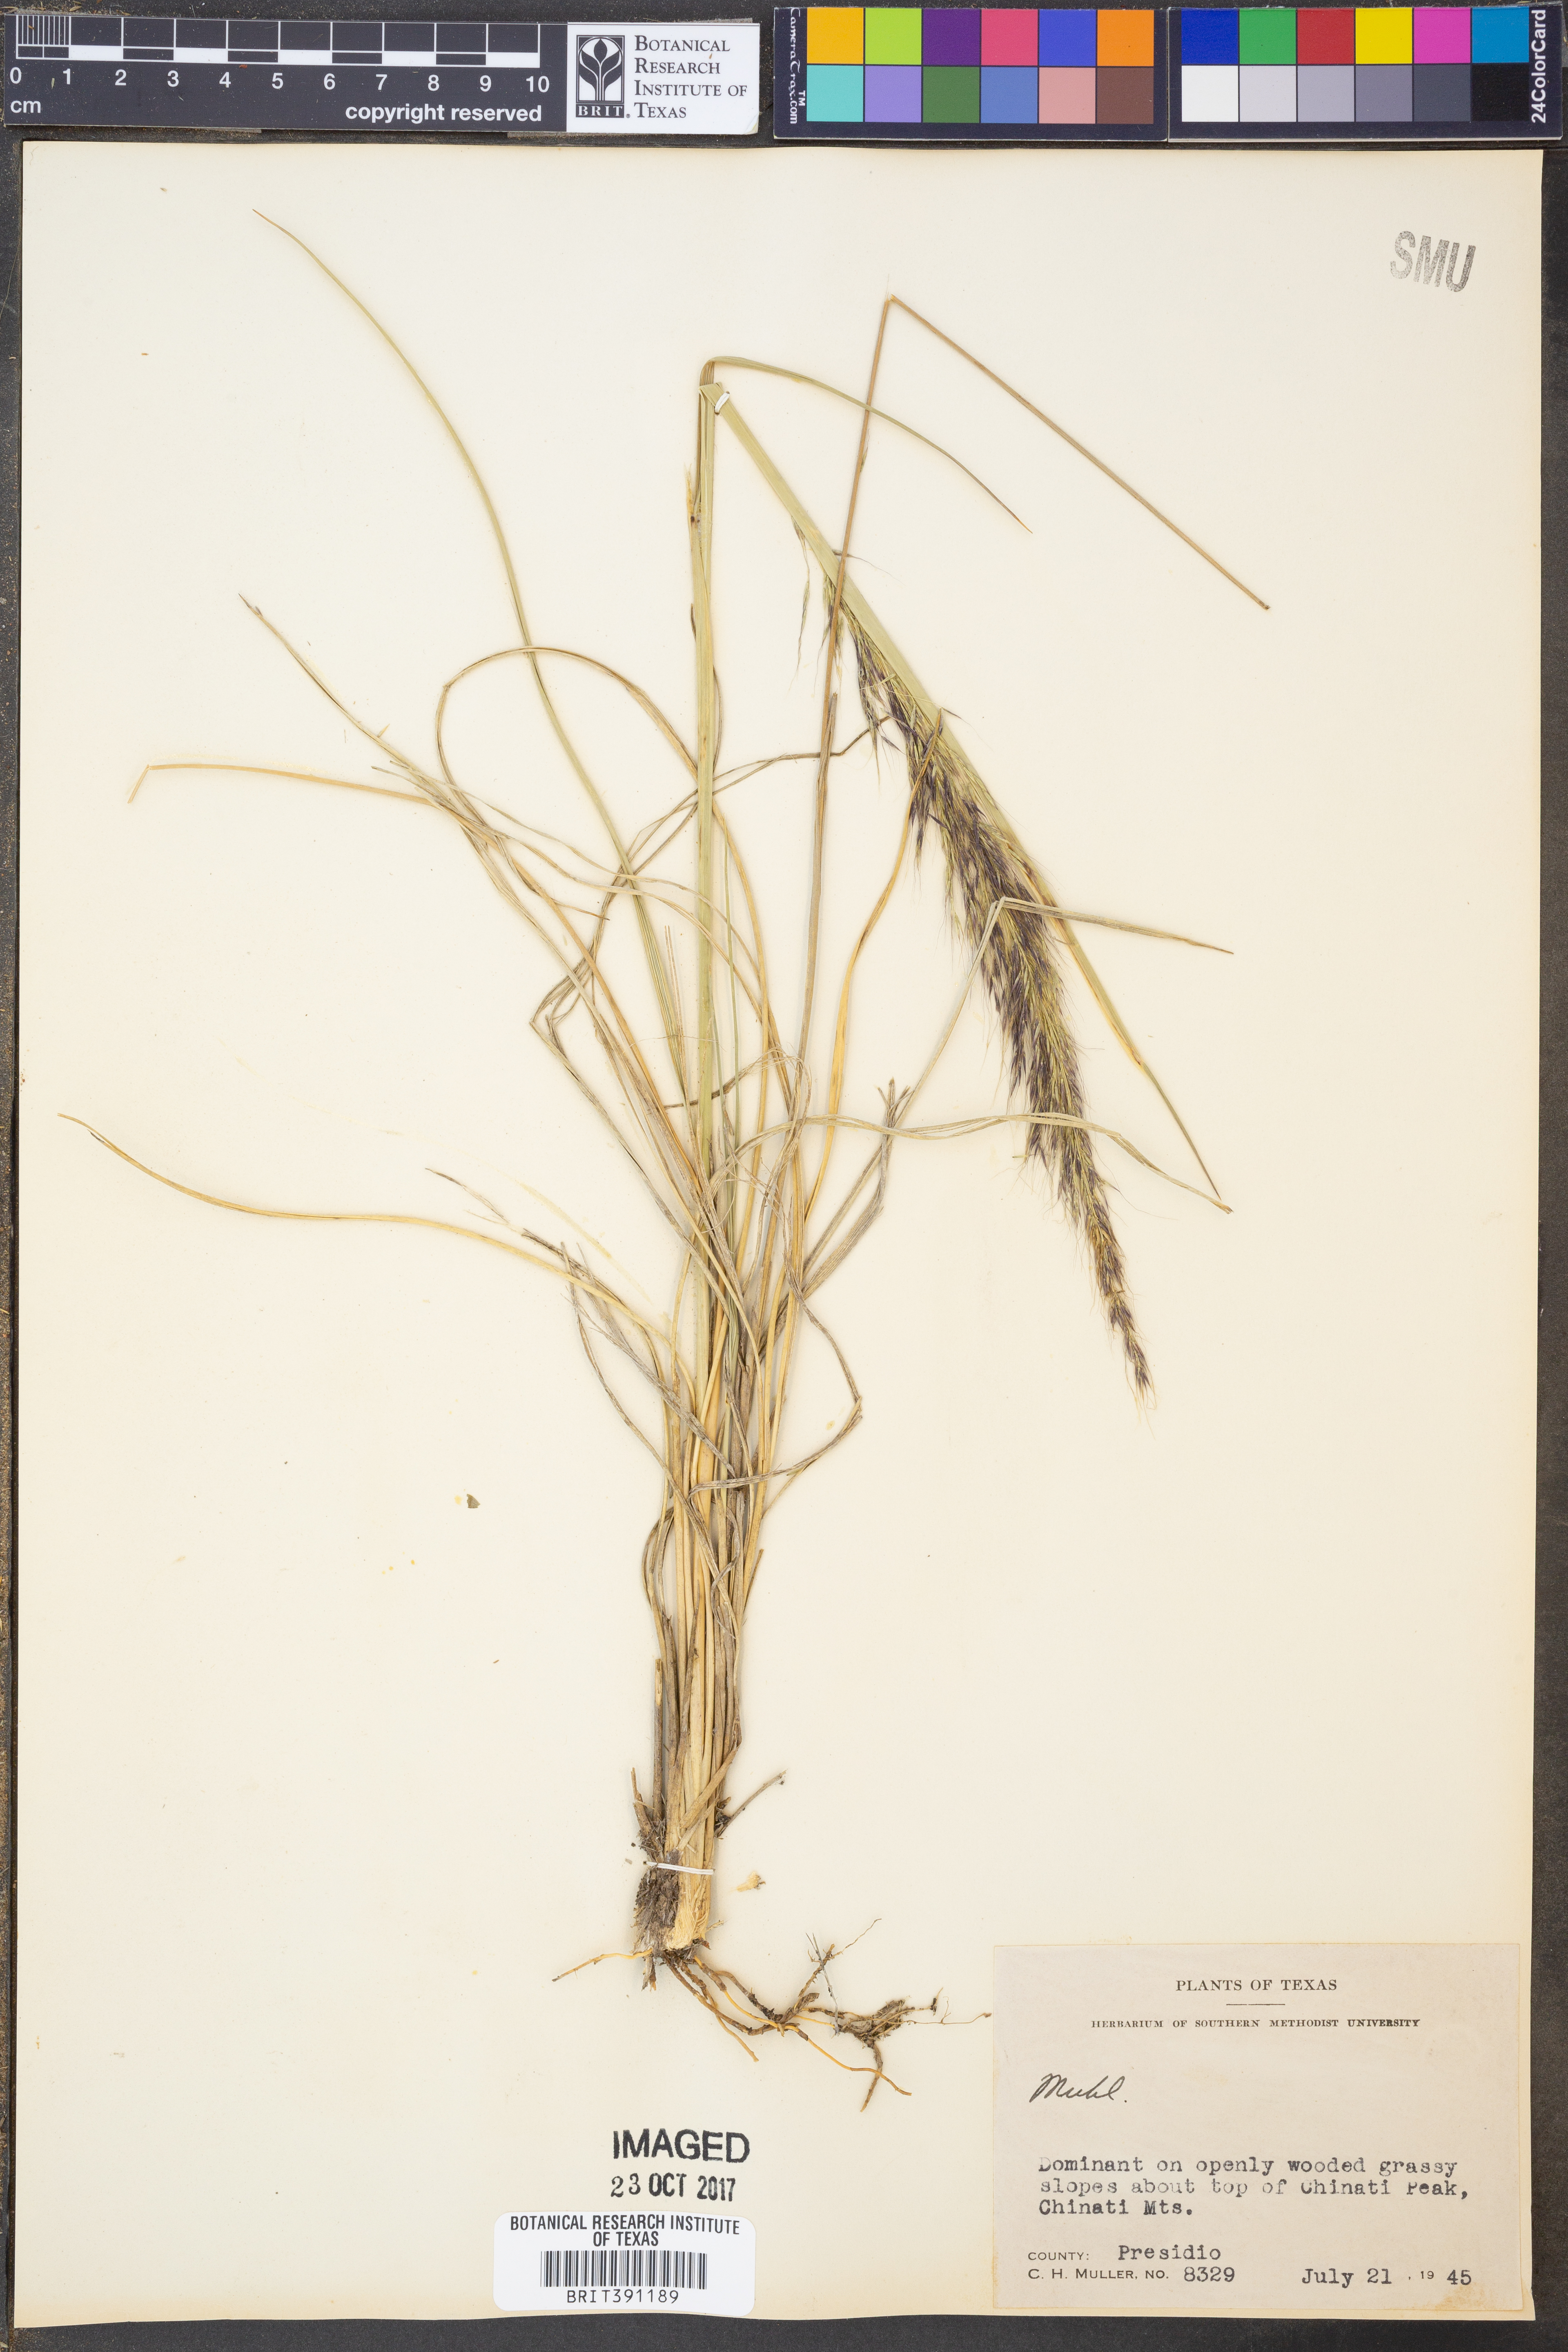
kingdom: Plantae
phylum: Tracheophyta
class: Liliopsida
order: Poales
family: Poaceae
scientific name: Poaceae
